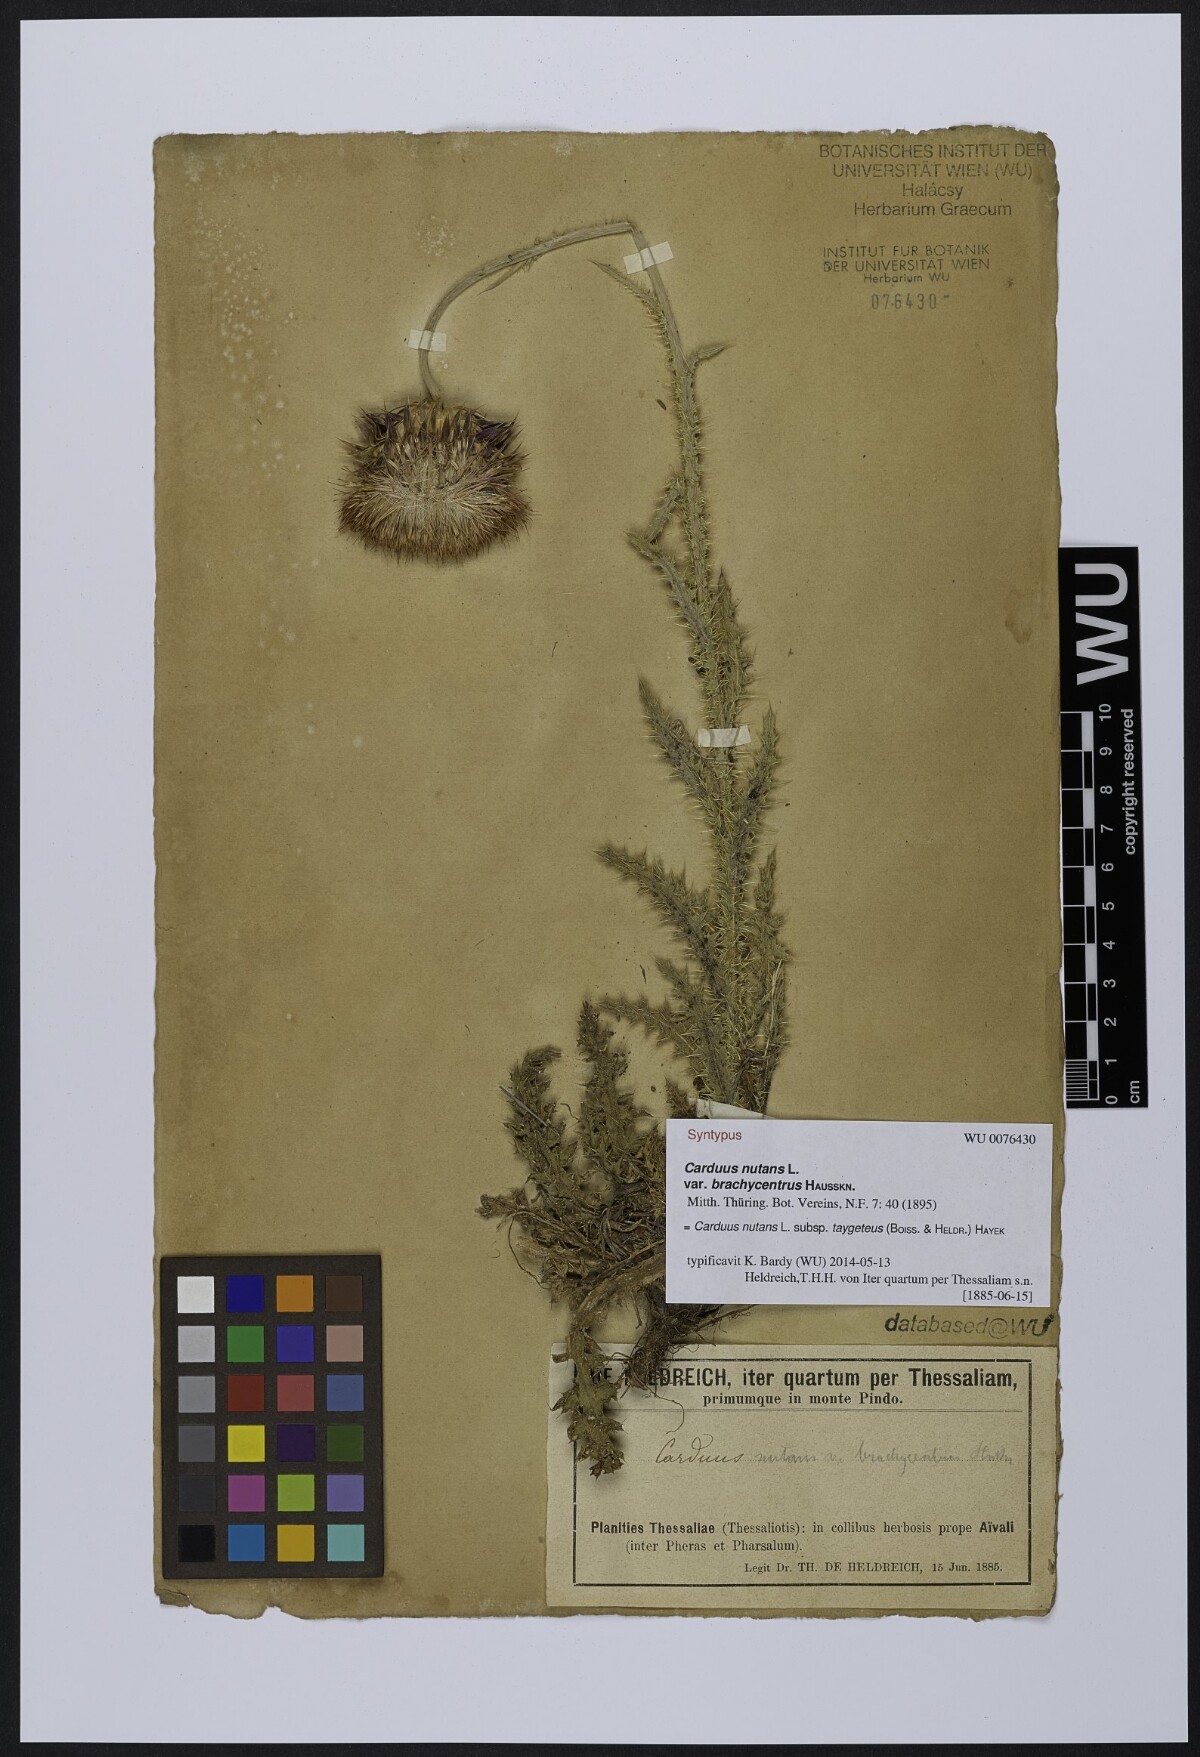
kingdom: Plantae
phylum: Tracheophyta
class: Magnoliopsida
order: Asterales
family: Asteraceae
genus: Carduus
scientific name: Carduus nutans
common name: Musk thistle
